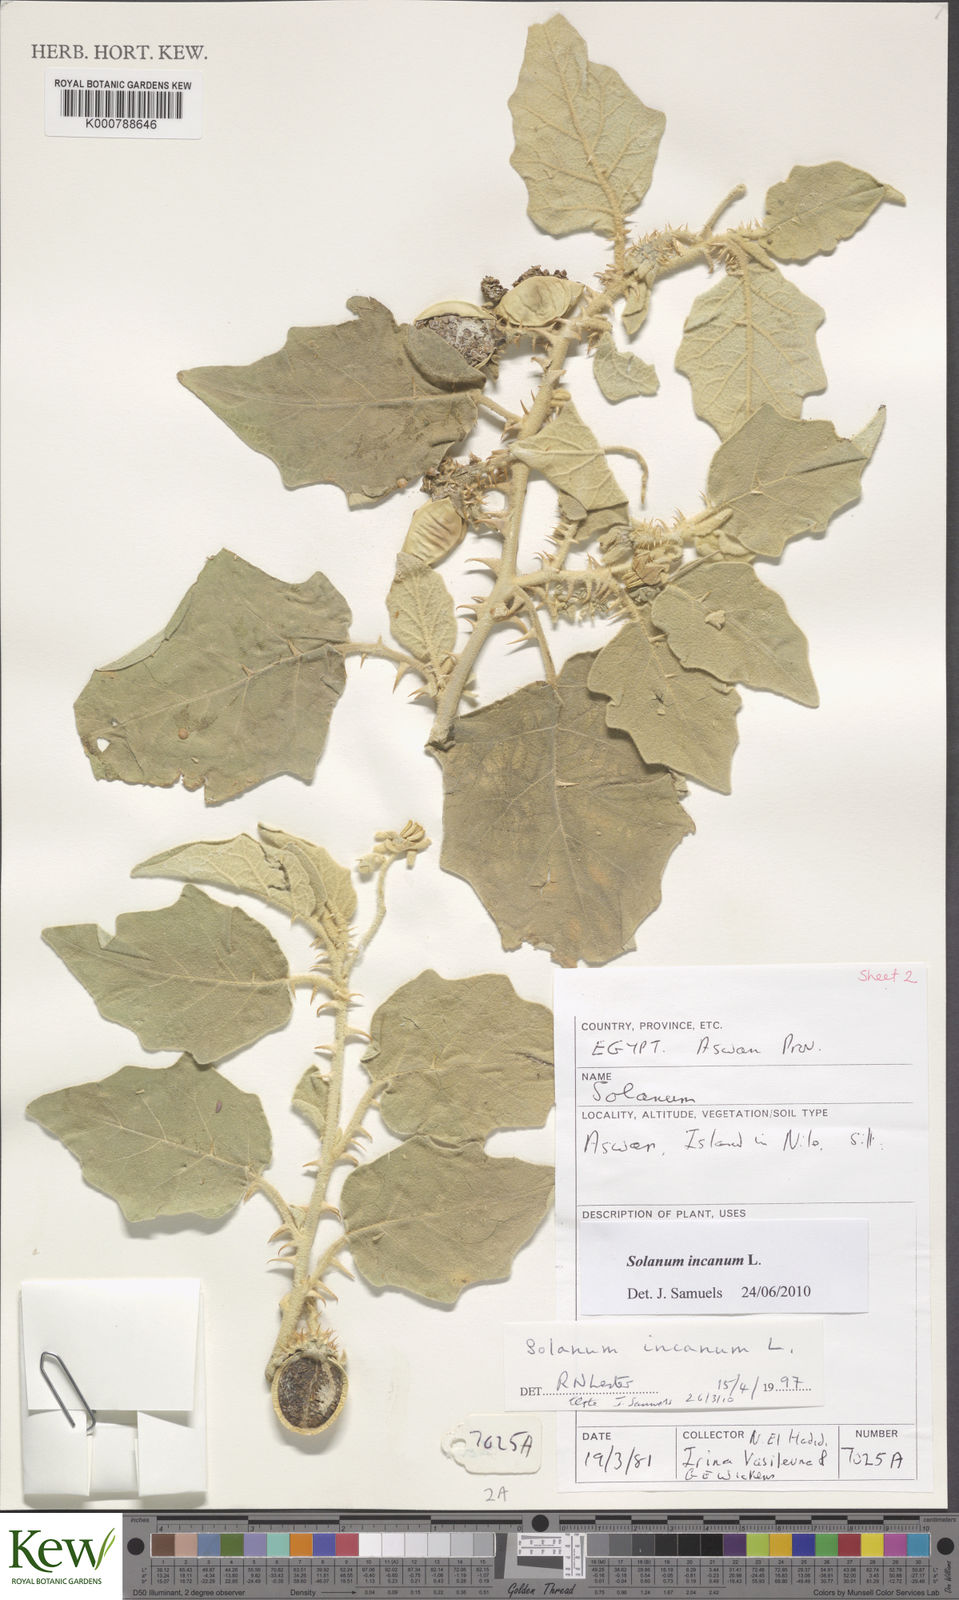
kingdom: Plantae
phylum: Tracheophyta
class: Magnoliopsida
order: Solanales
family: Solanaceae
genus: Solanum
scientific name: Solanum incanum
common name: Bitter apple
